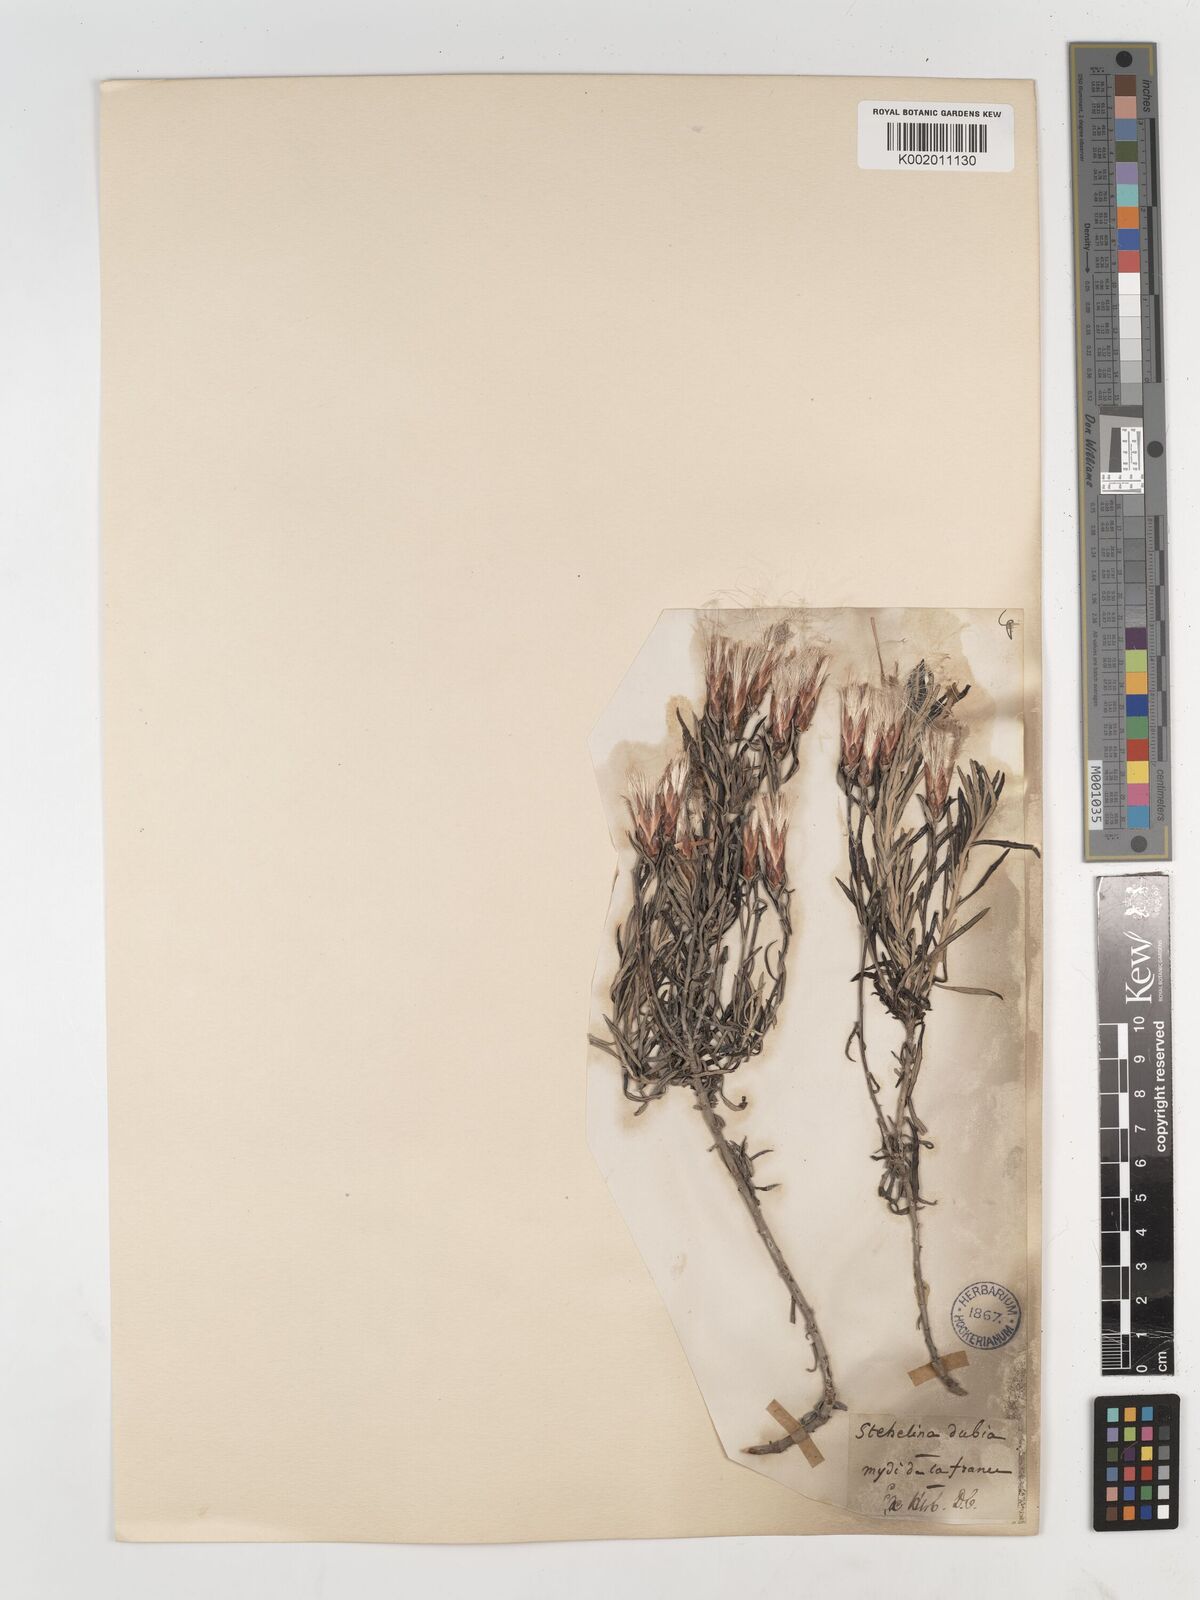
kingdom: Plantae
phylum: Tracheophyta
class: Magnoliopsida
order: Asterales
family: Asteraceae
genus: Staehelina
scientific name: Staehelina dubia
